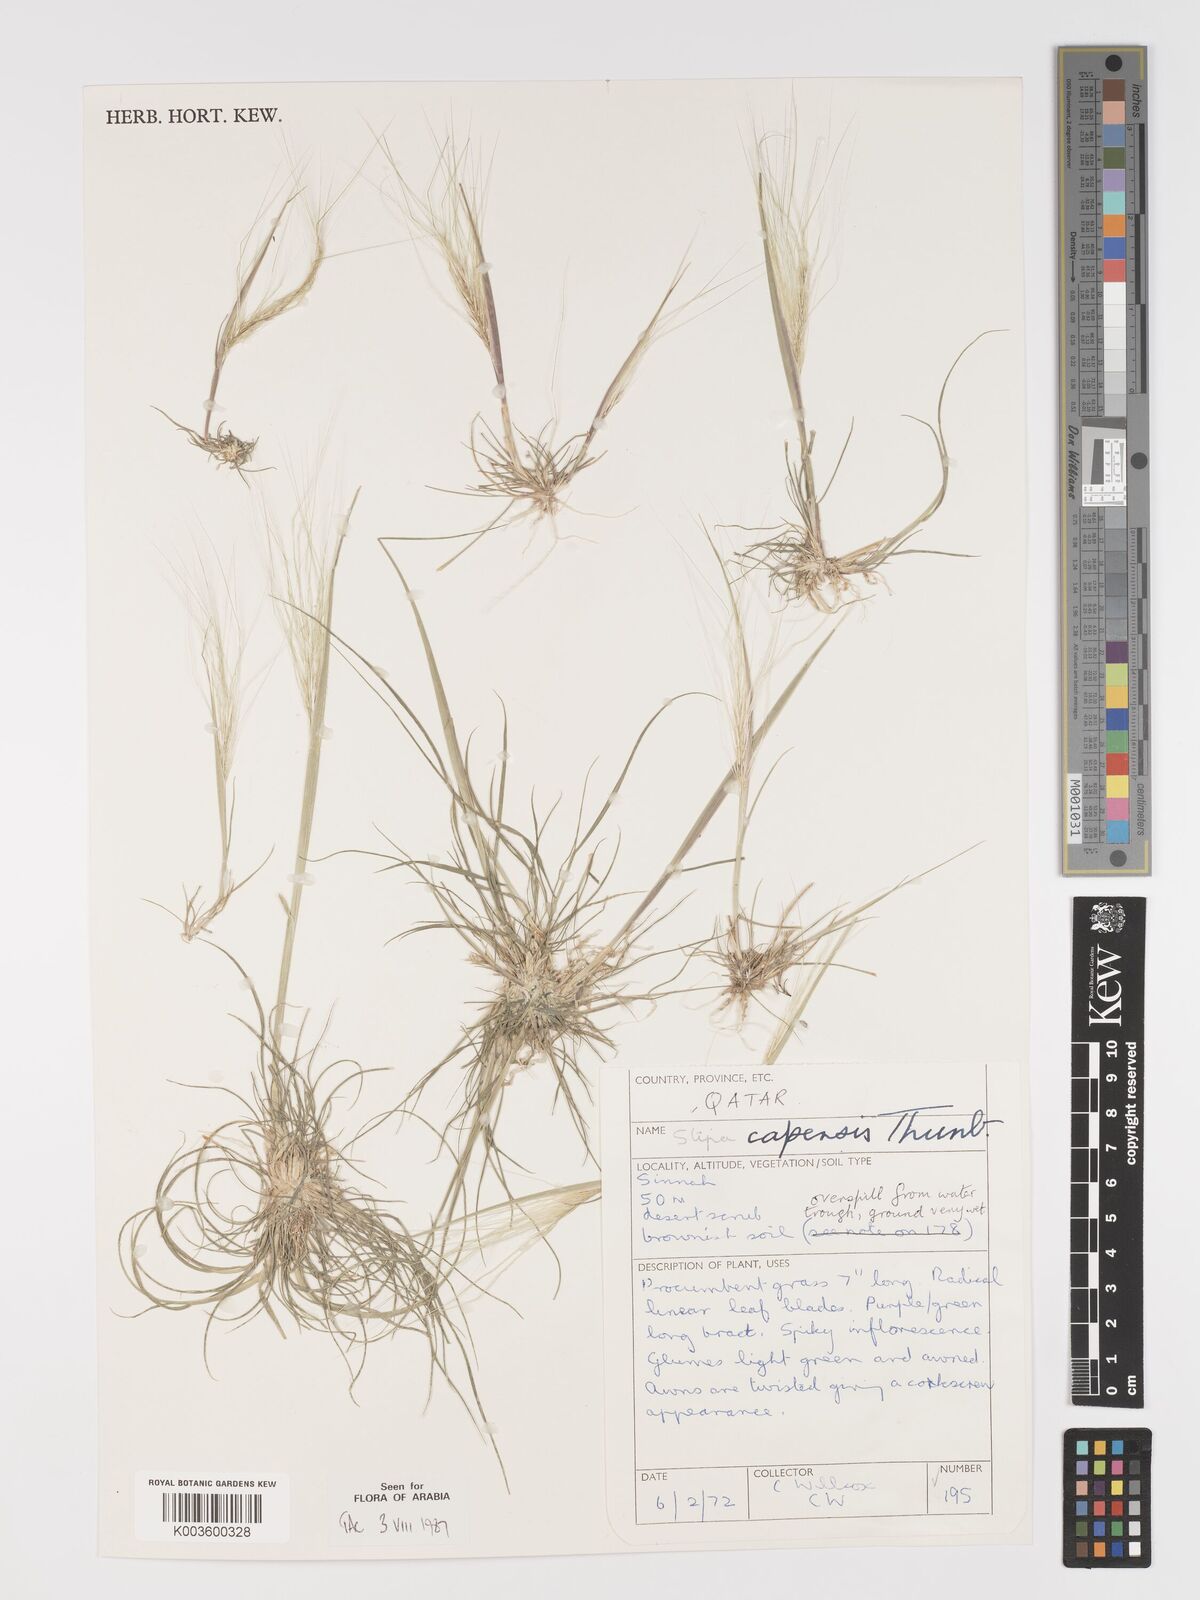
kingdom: Plantae
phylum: Tracheophyta
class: Liliopsida
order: Poales
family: Poaceae
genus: Stipellula
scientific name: Stipellula capensis
